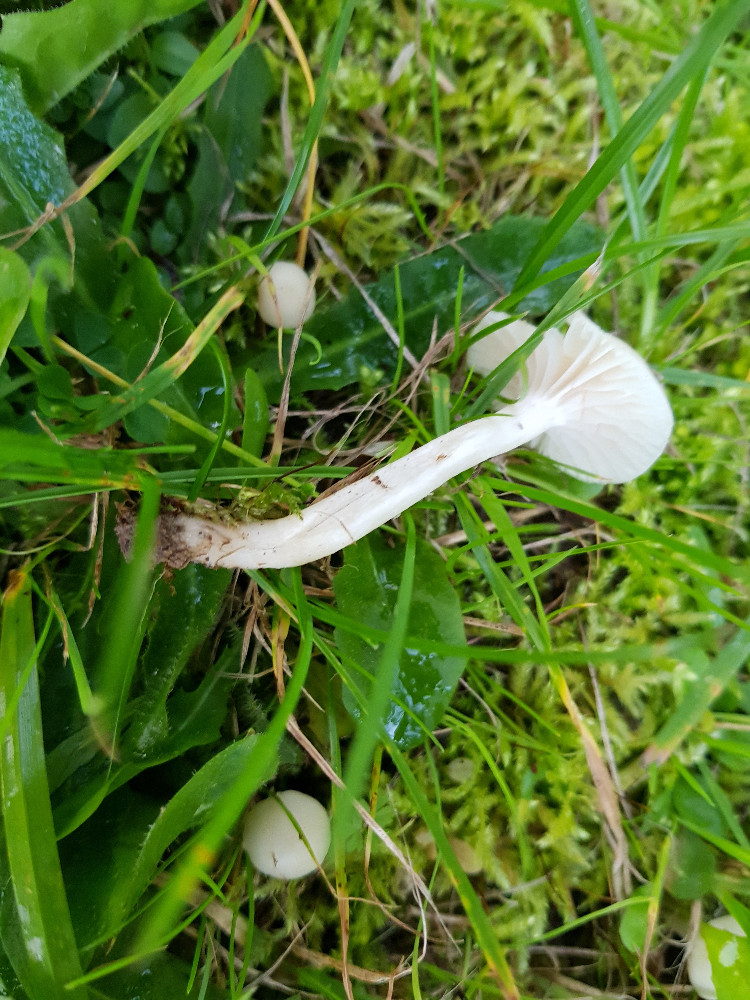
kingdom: Fungi
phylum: Basidiomycota
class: Agaricomycetes
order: Agaricales
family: Hygrophoraceae
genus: Cuphophyllus
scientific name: Cuphophyllus virgineus
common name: snehvid vokshat
